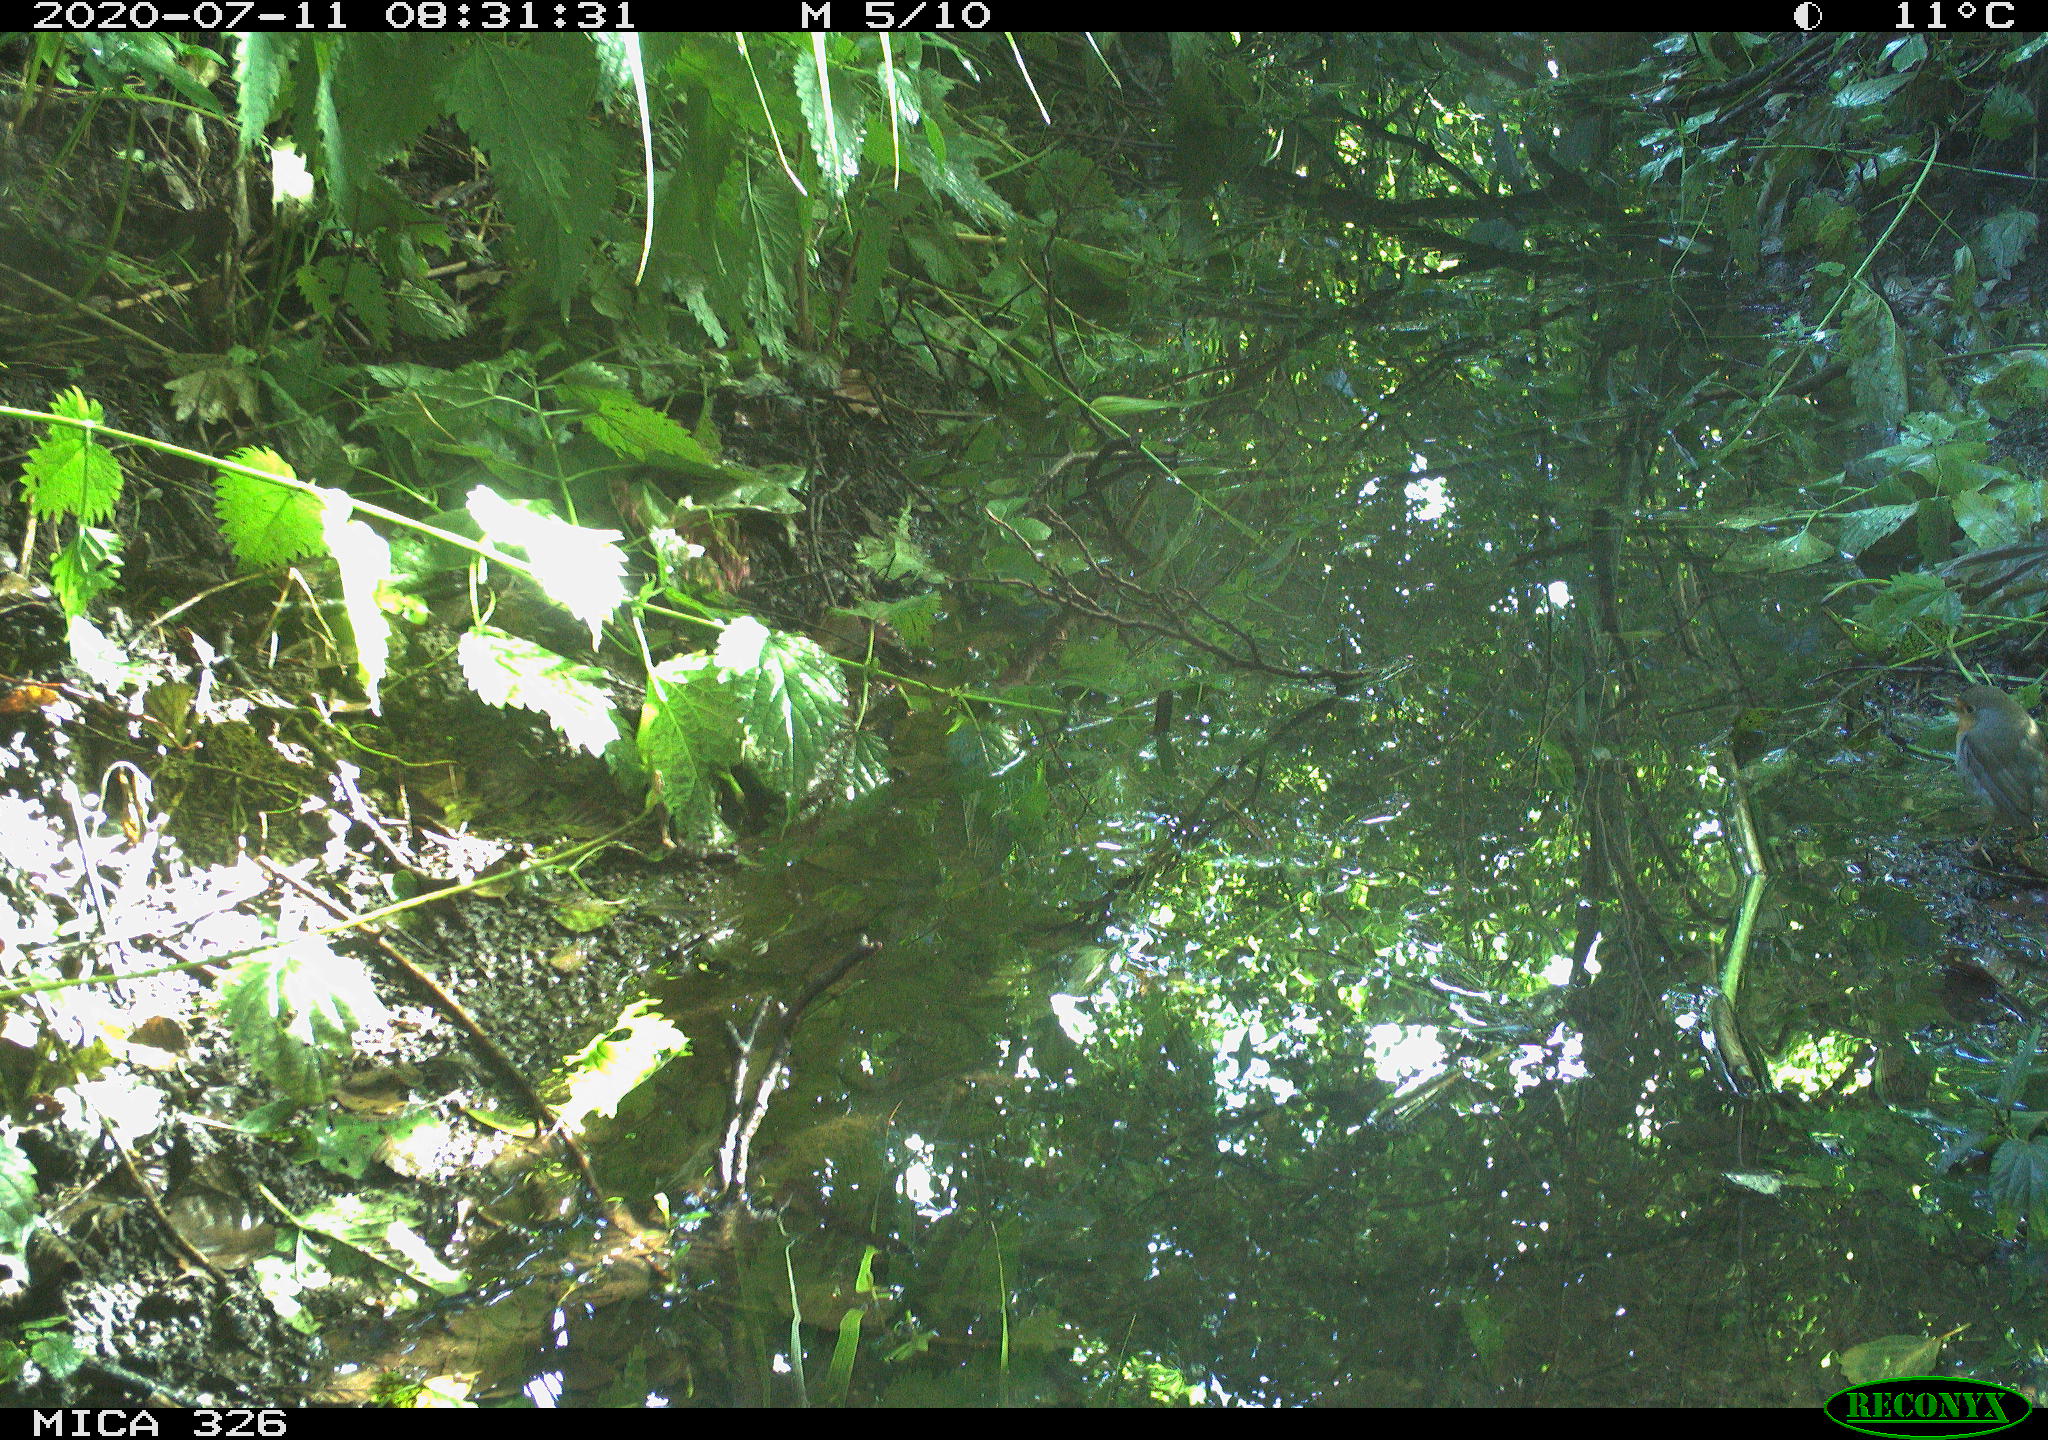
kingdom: Animalia
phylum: Chordata
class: Aves
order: Passeriformes
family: Muscicapidae
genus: Erithacus
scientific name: Erithacus rubecula
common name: European robin
